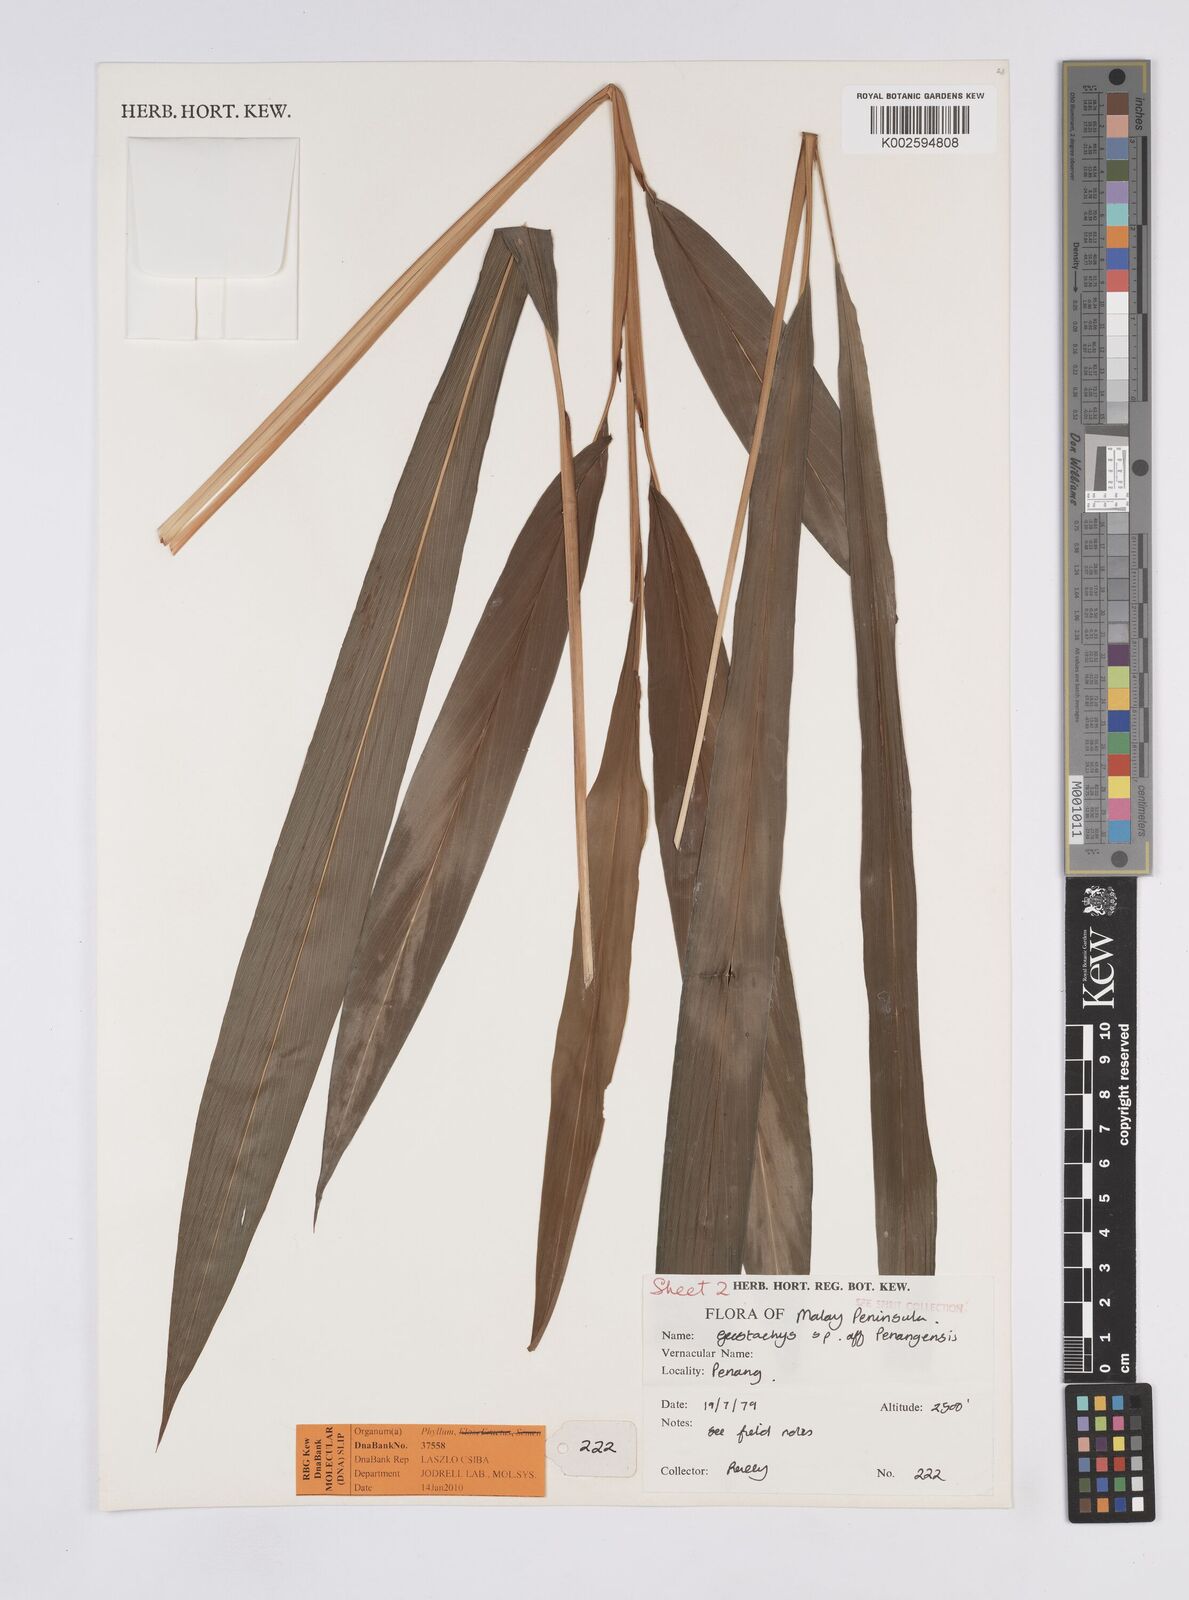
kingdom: Plantae
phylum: Tracheophyta
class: Liliopsida
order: Zingiberales
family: Zingiberaceae
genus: Geostachys
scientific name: Geostachys penangensis
